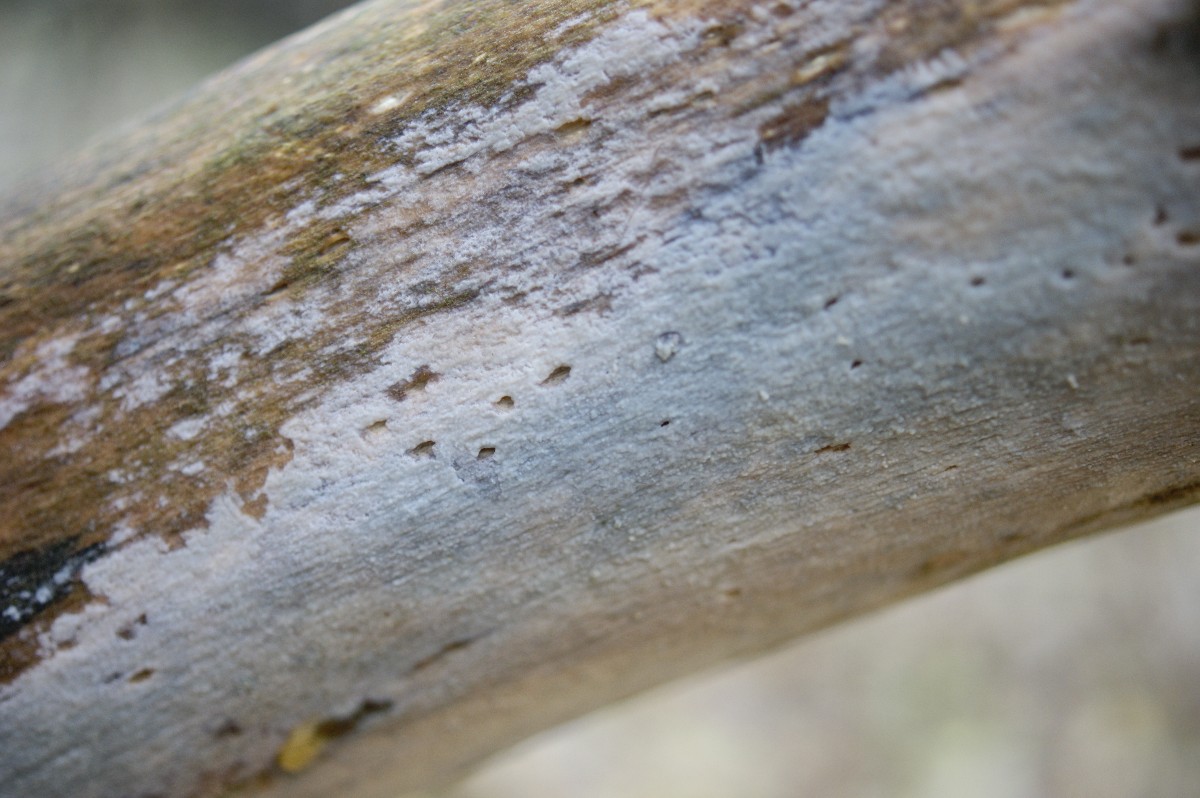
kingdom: Fungi
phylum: Basidiomycota
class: Agaricomycetes
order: Agaricales
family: Radulomycetaceae
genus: Radulomyces
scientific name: Radulomyces confluens
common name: glat naftalinskind
